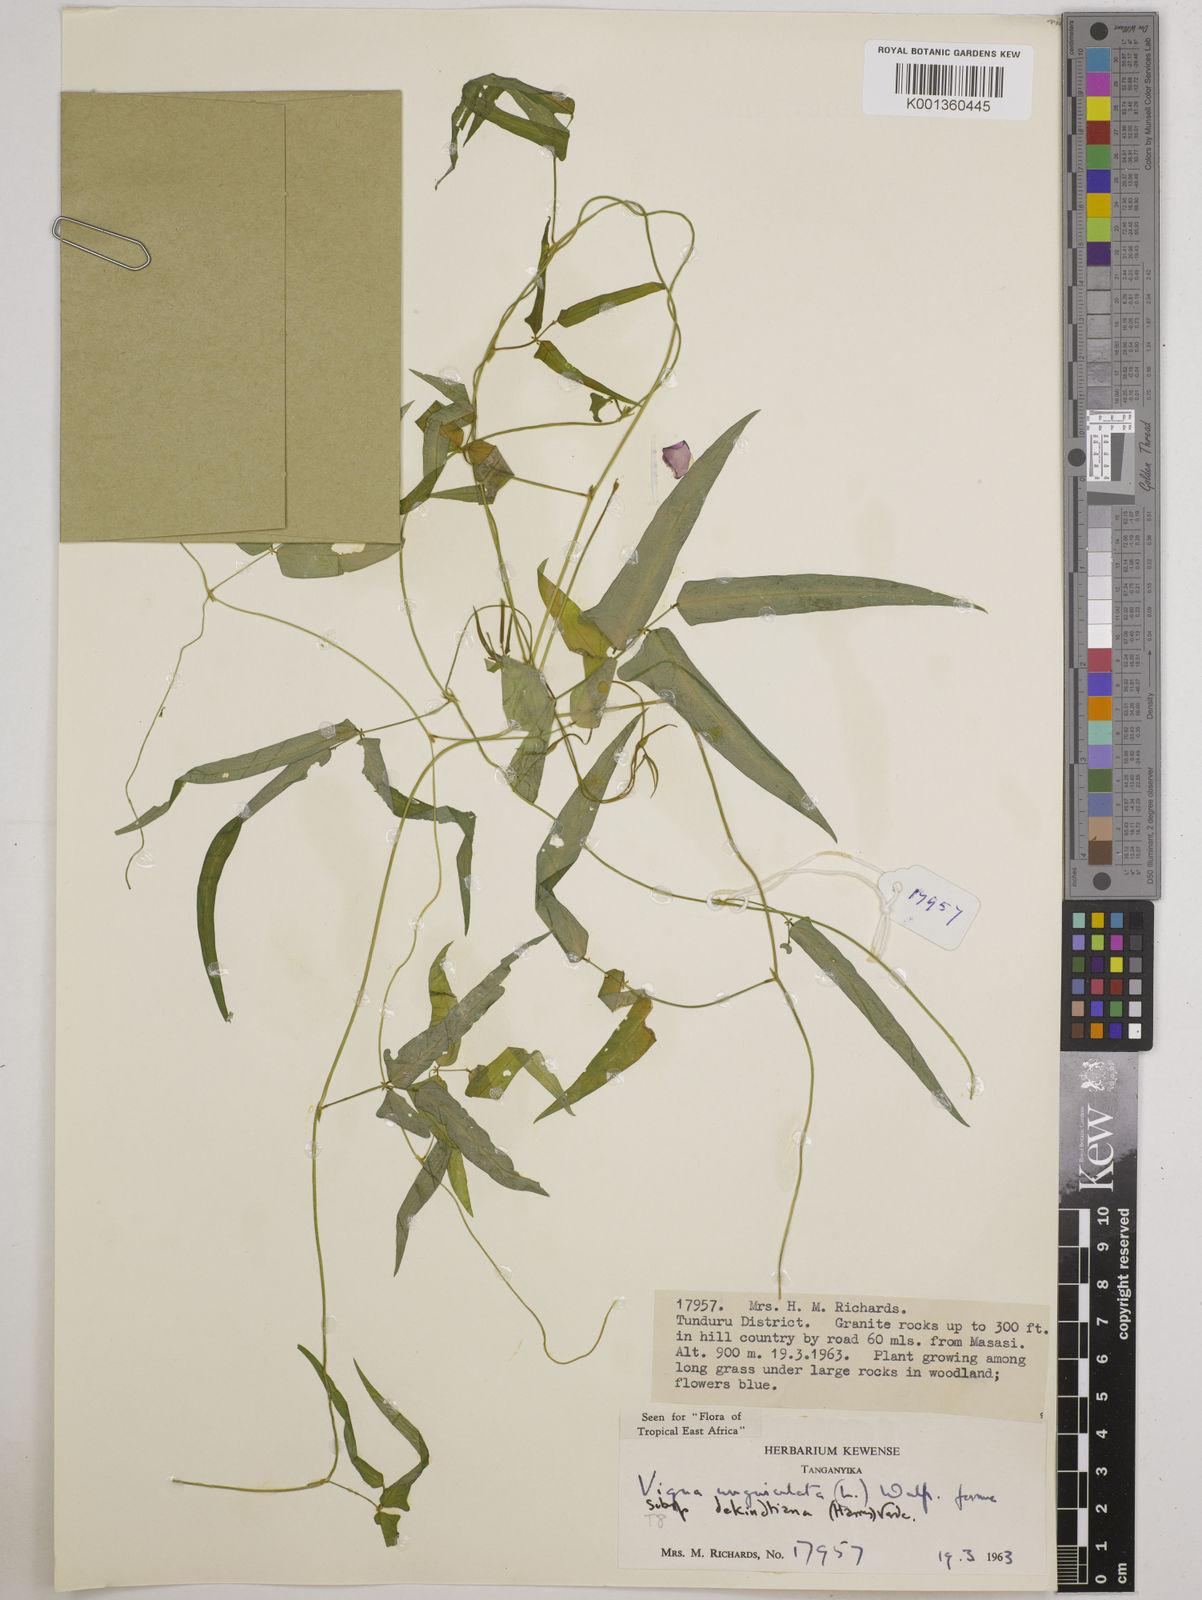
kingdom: Plantae
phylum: Tracheophyta
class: Magnoliopsida
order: Fabales
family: Fabaceae
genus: Vigna
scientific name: Vigna
